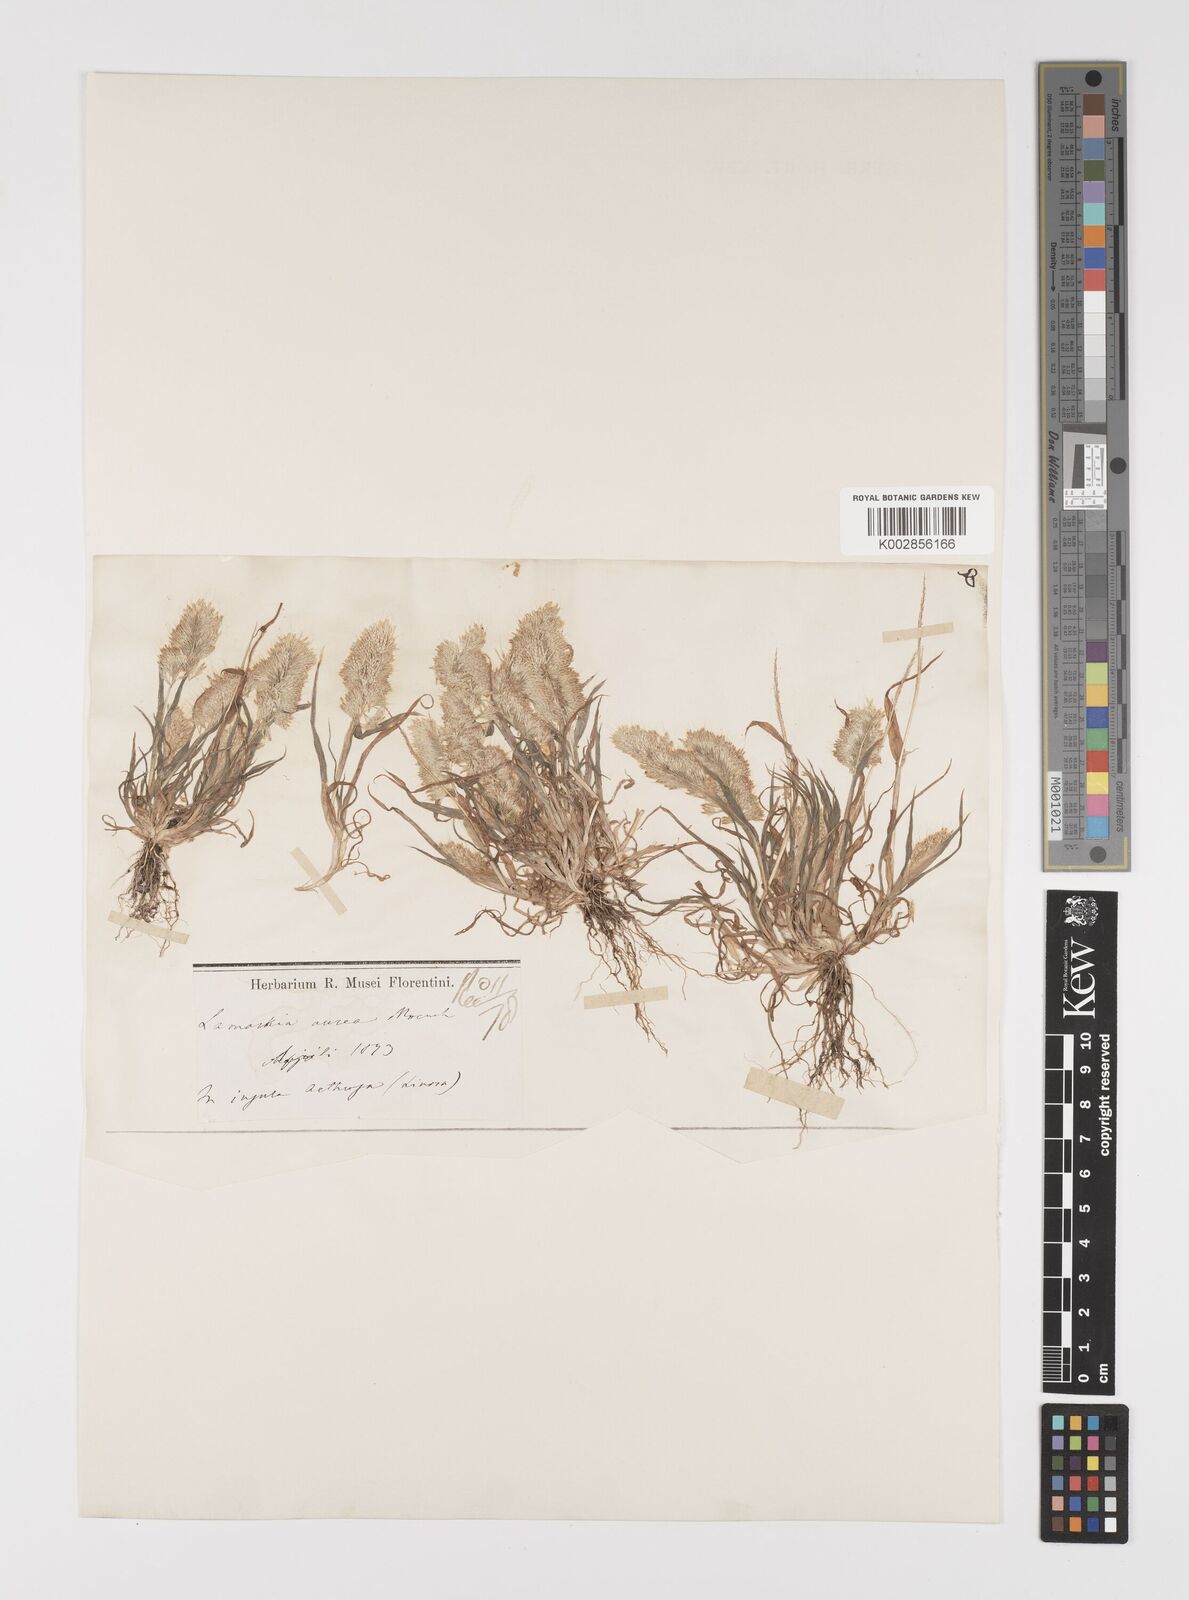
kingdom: Plantae
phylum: Tracheophyta
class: Liliopsida
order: Poales
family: Poaceae
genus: Lamarckia
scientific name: Lamarckia aurea
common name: Golden dog's-tail
